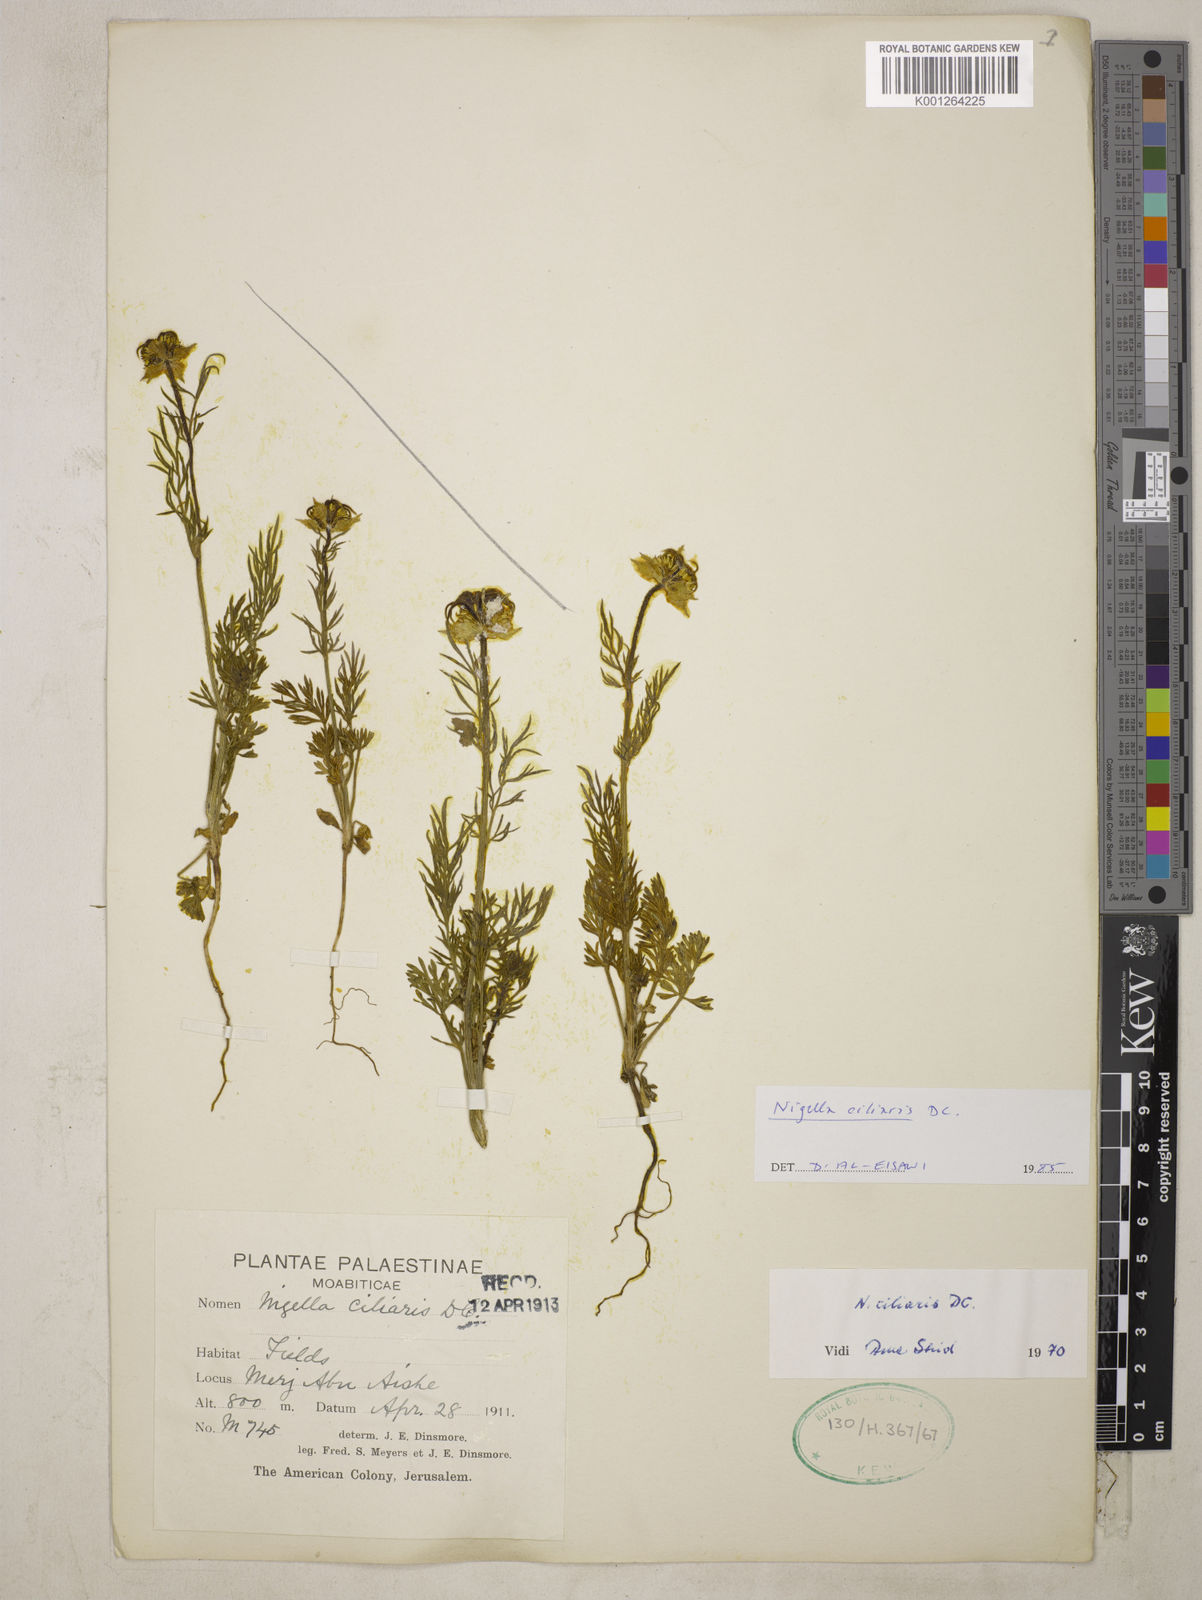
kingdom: Plantae
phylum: Tracheophyta
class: Magnoliopsida
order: Ranunculales
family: Ranunculaceae
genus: Nigella
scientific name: Nigella ciliaris
